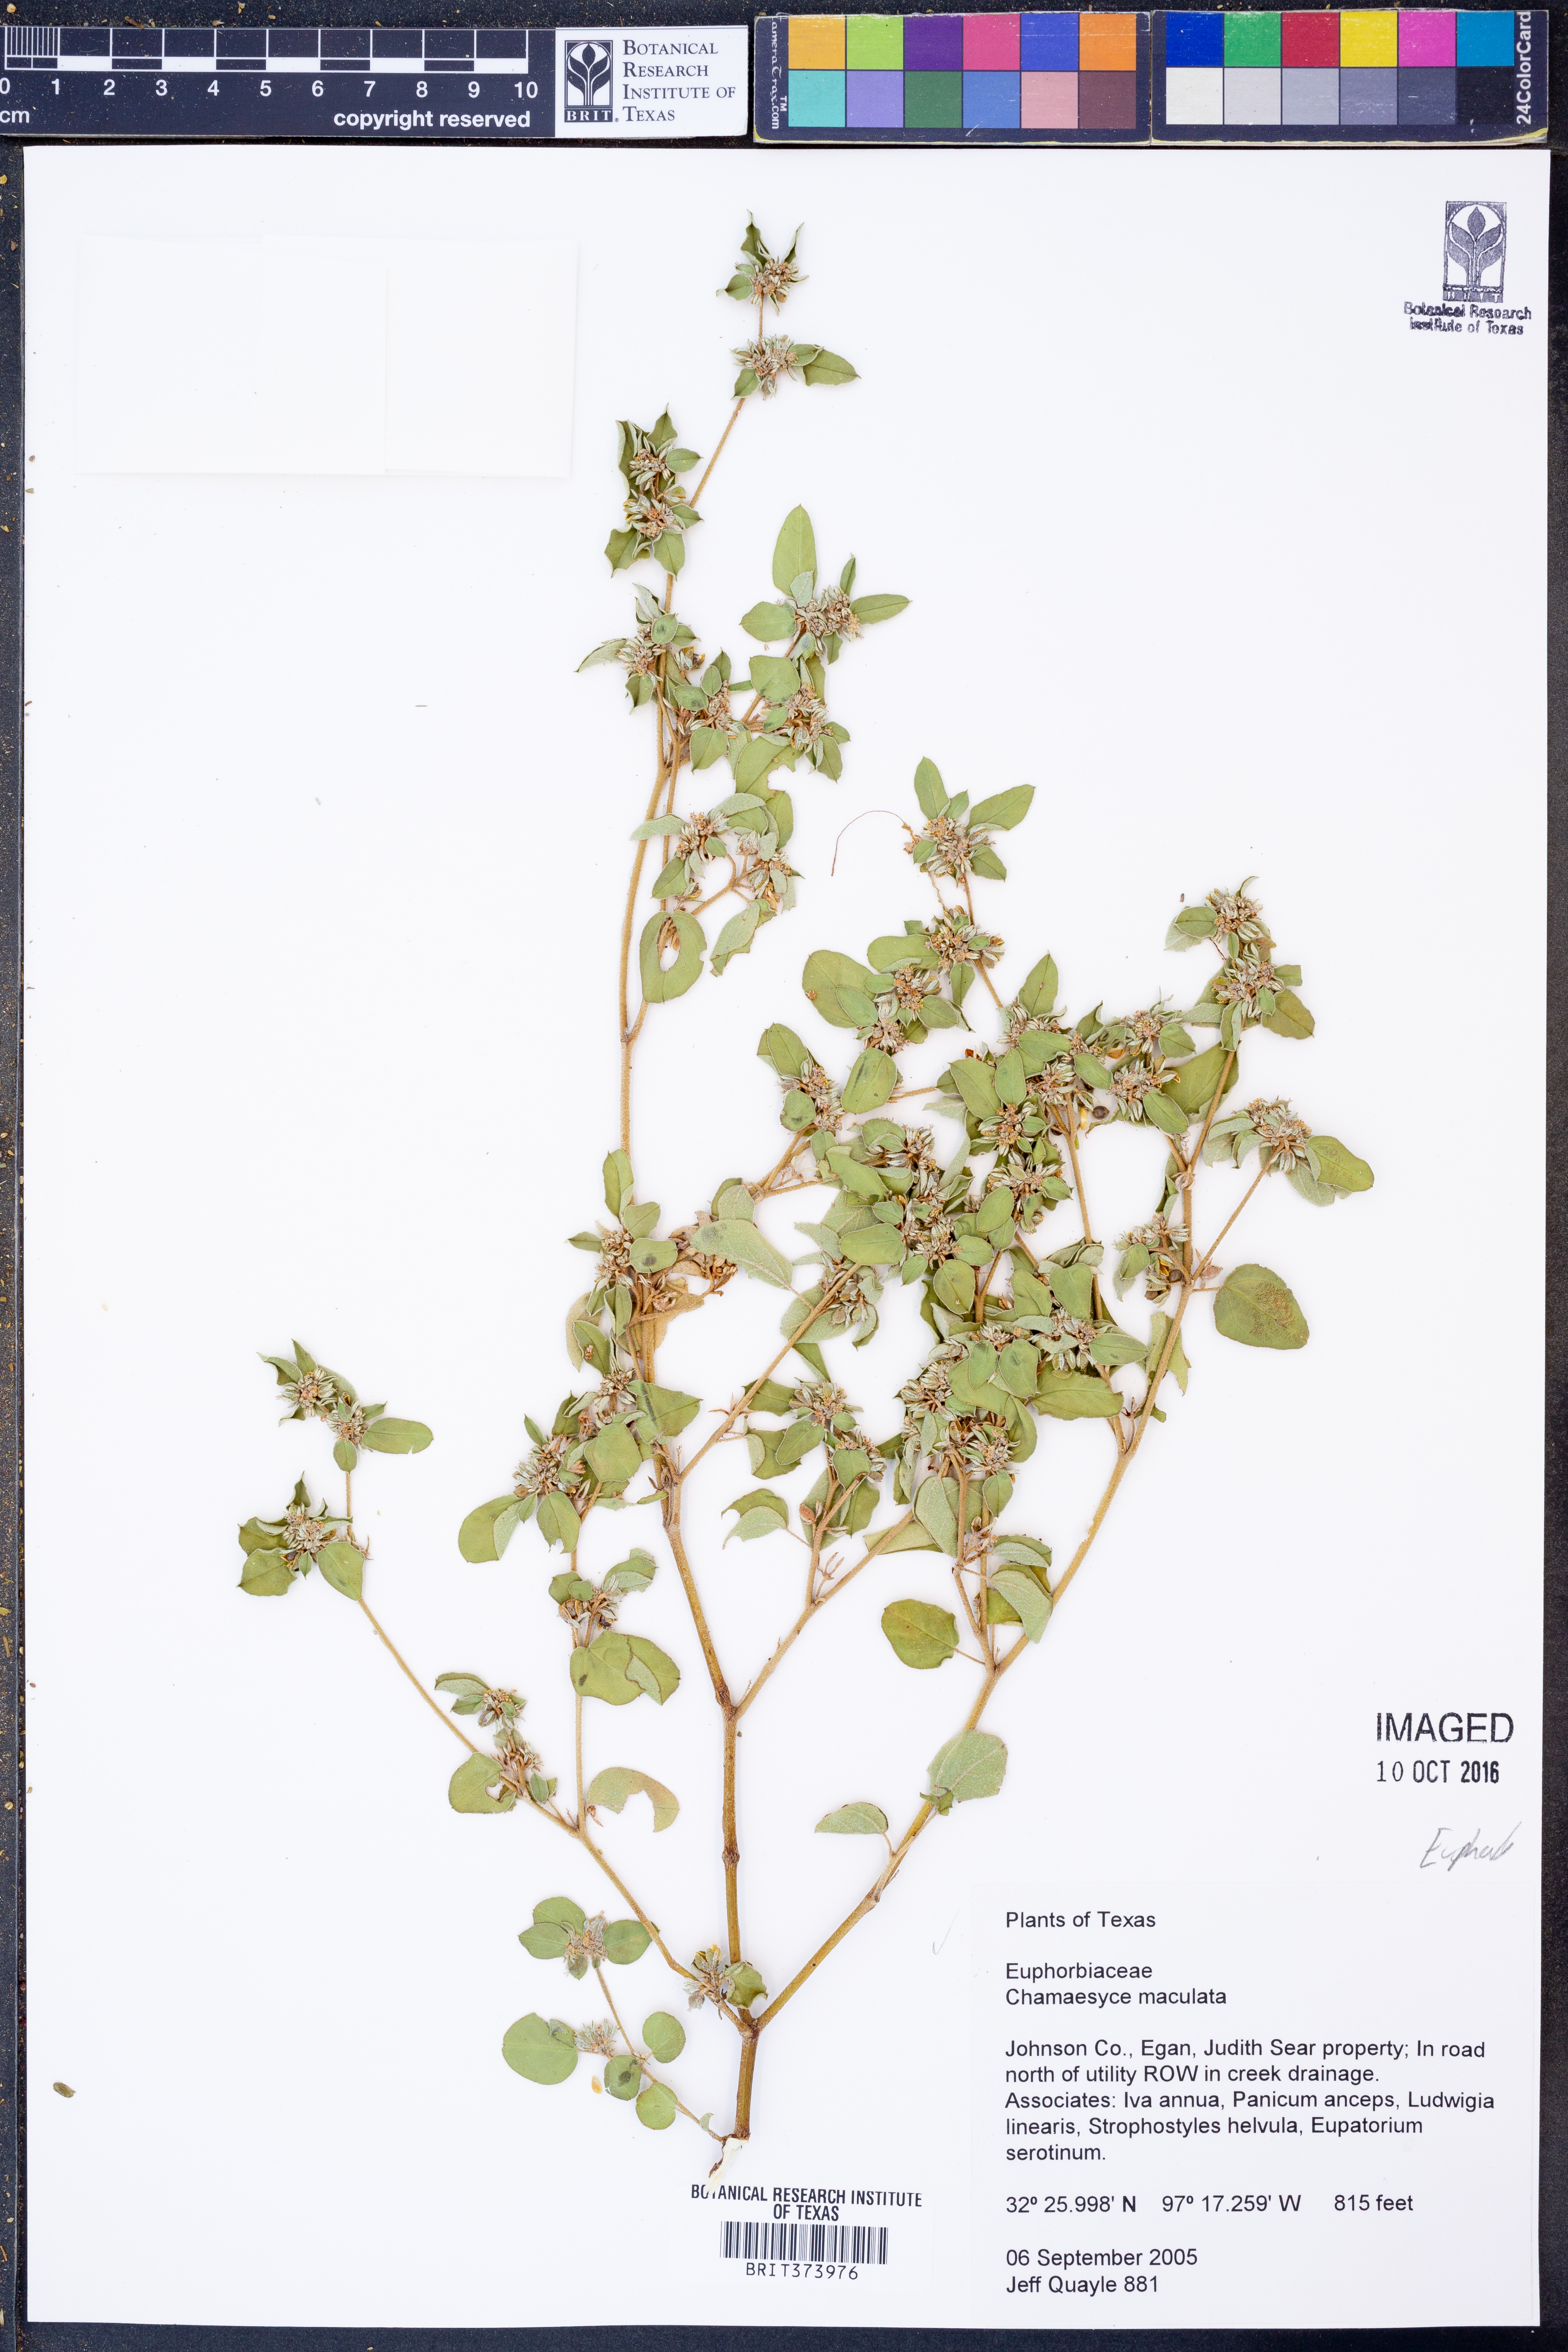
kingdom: Plantae
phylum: Tracheophyta
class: Magnoliopsida
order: Malpighiales
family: Euphorbiaceae
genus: Euphorbia
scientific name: Euphorbia maculata
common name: Spotted spurge
